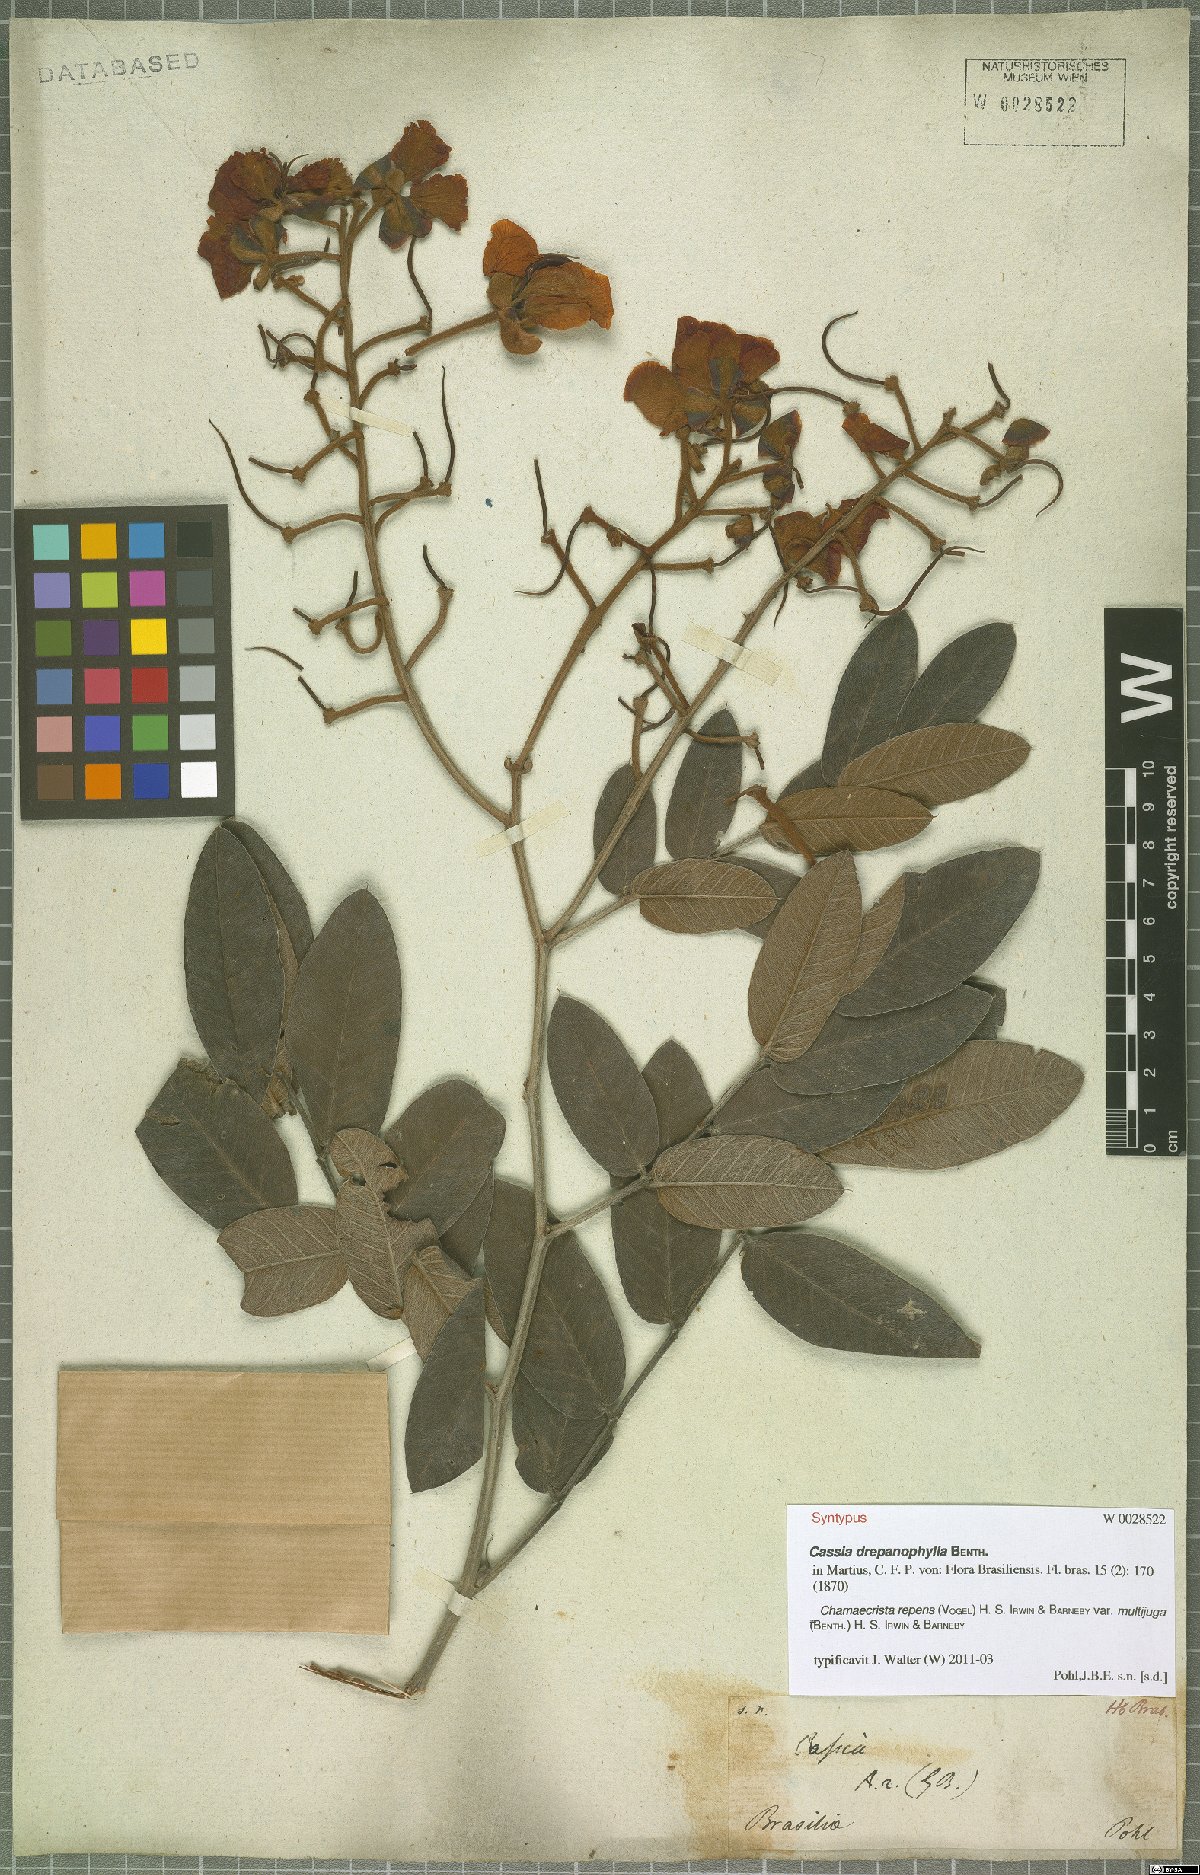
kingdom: Plantae
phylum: Tracheophyta
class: Magnoliopsida
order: Fabales
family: Fabaceae
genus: Chamaecrista
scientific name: Chamaecrista repens
